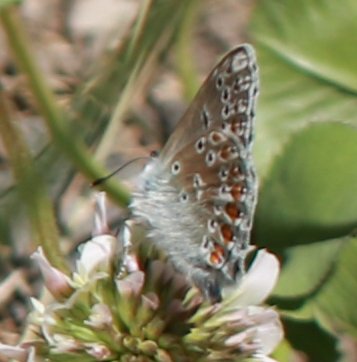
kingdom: Animalia
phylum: Arthropoda
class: Insecta
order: Lepidoptera
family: Lycaenidae
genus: Polyommatus
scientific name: Polyommatus icarus
